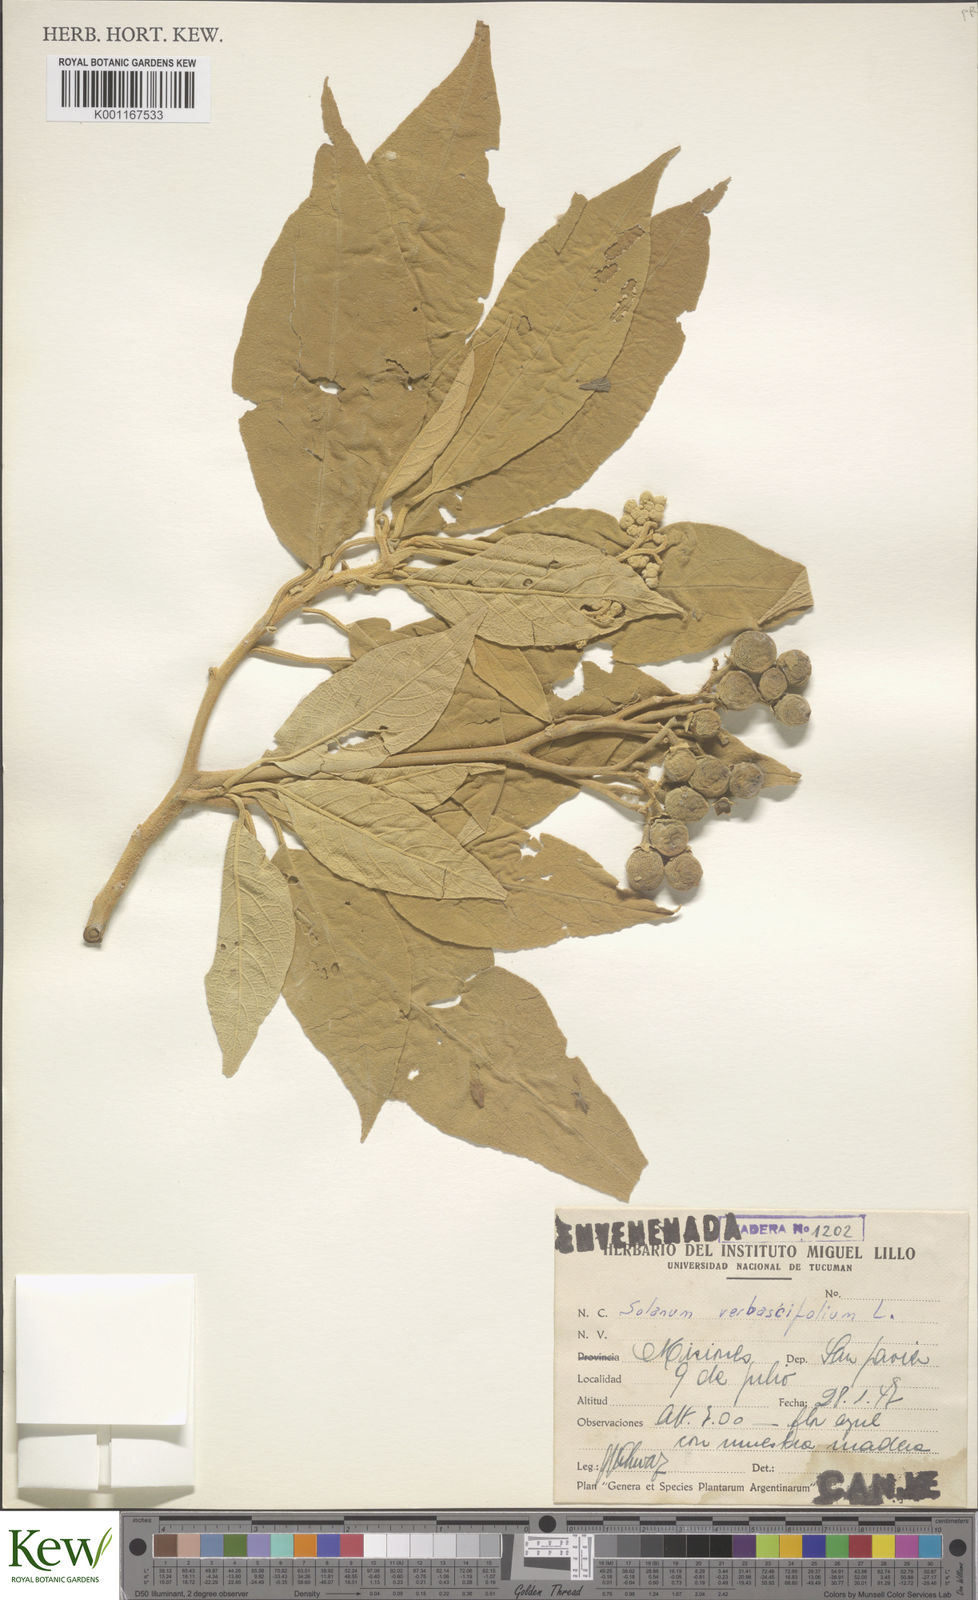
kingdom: Plantae
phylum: Tracheophyta
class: Magnoliopsida
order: Solanales
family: Solanaceae
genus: Solanum
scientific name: Solanum erianthum
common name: Tobacco-tree
